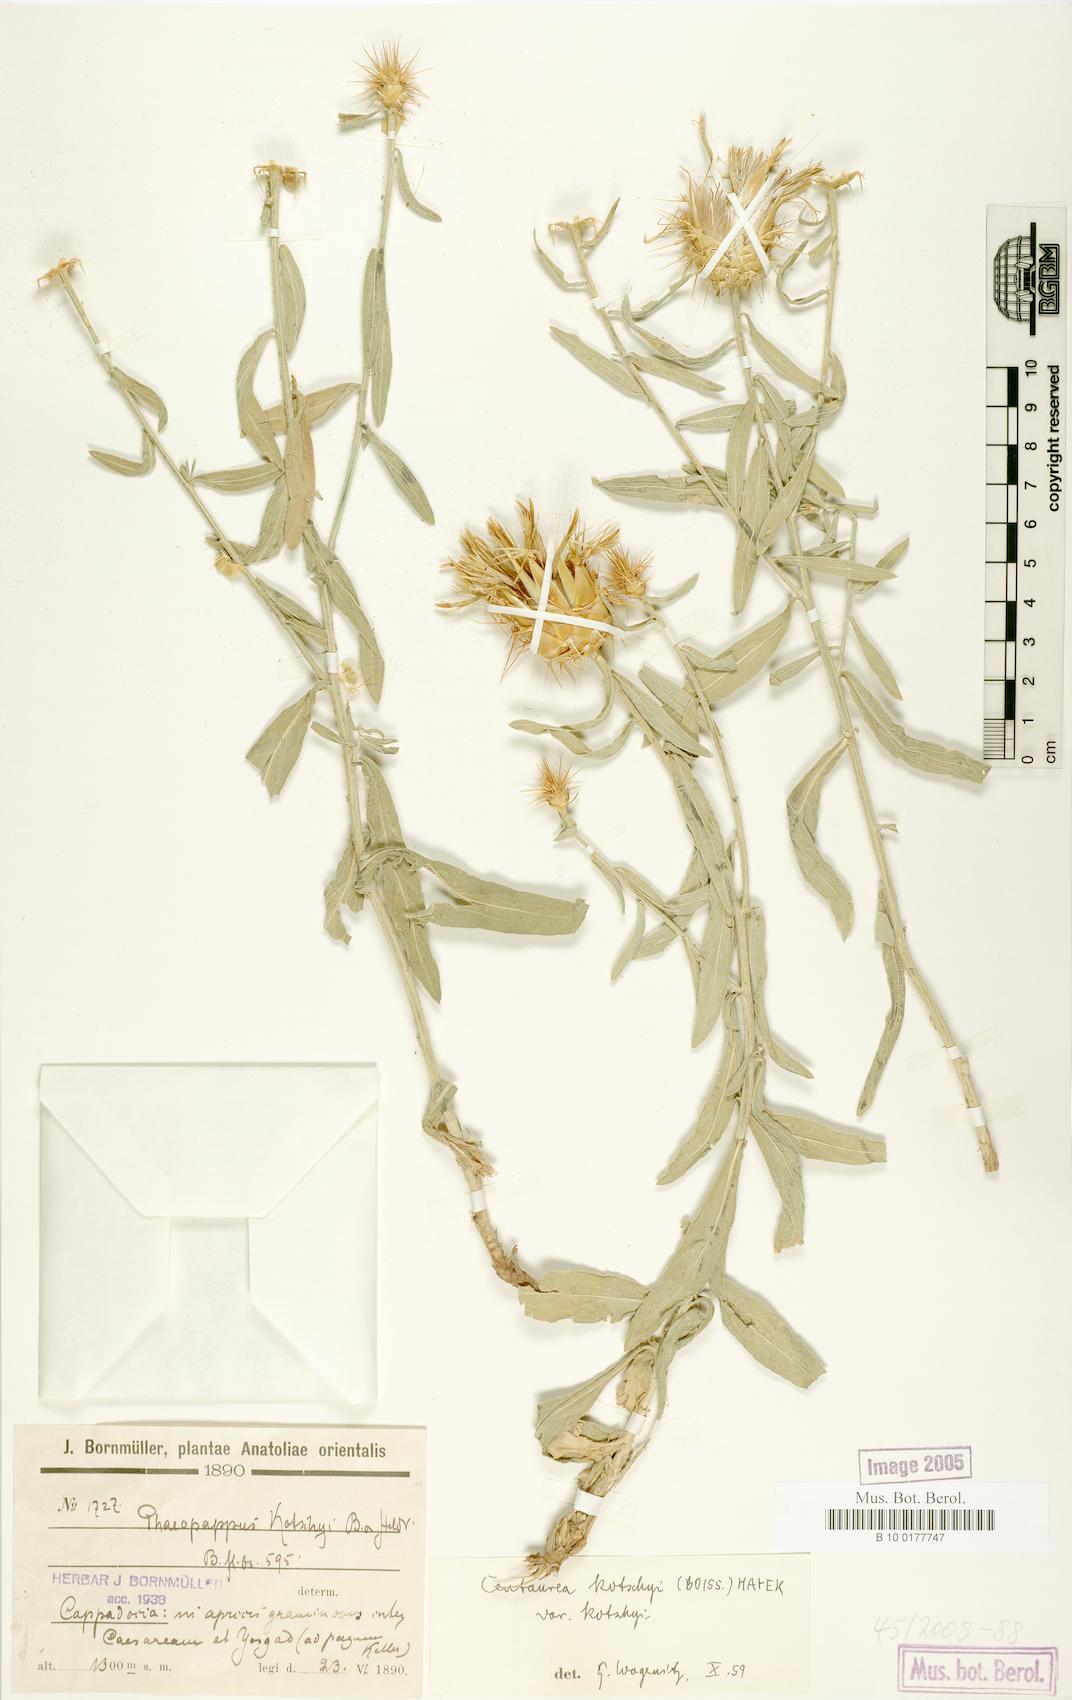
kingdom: Plantae
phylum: Tracheophyta
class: Magnoliopsida
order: Asterales
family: Asteraceae
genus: Centaurea
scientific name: Centaurea kotschyi
